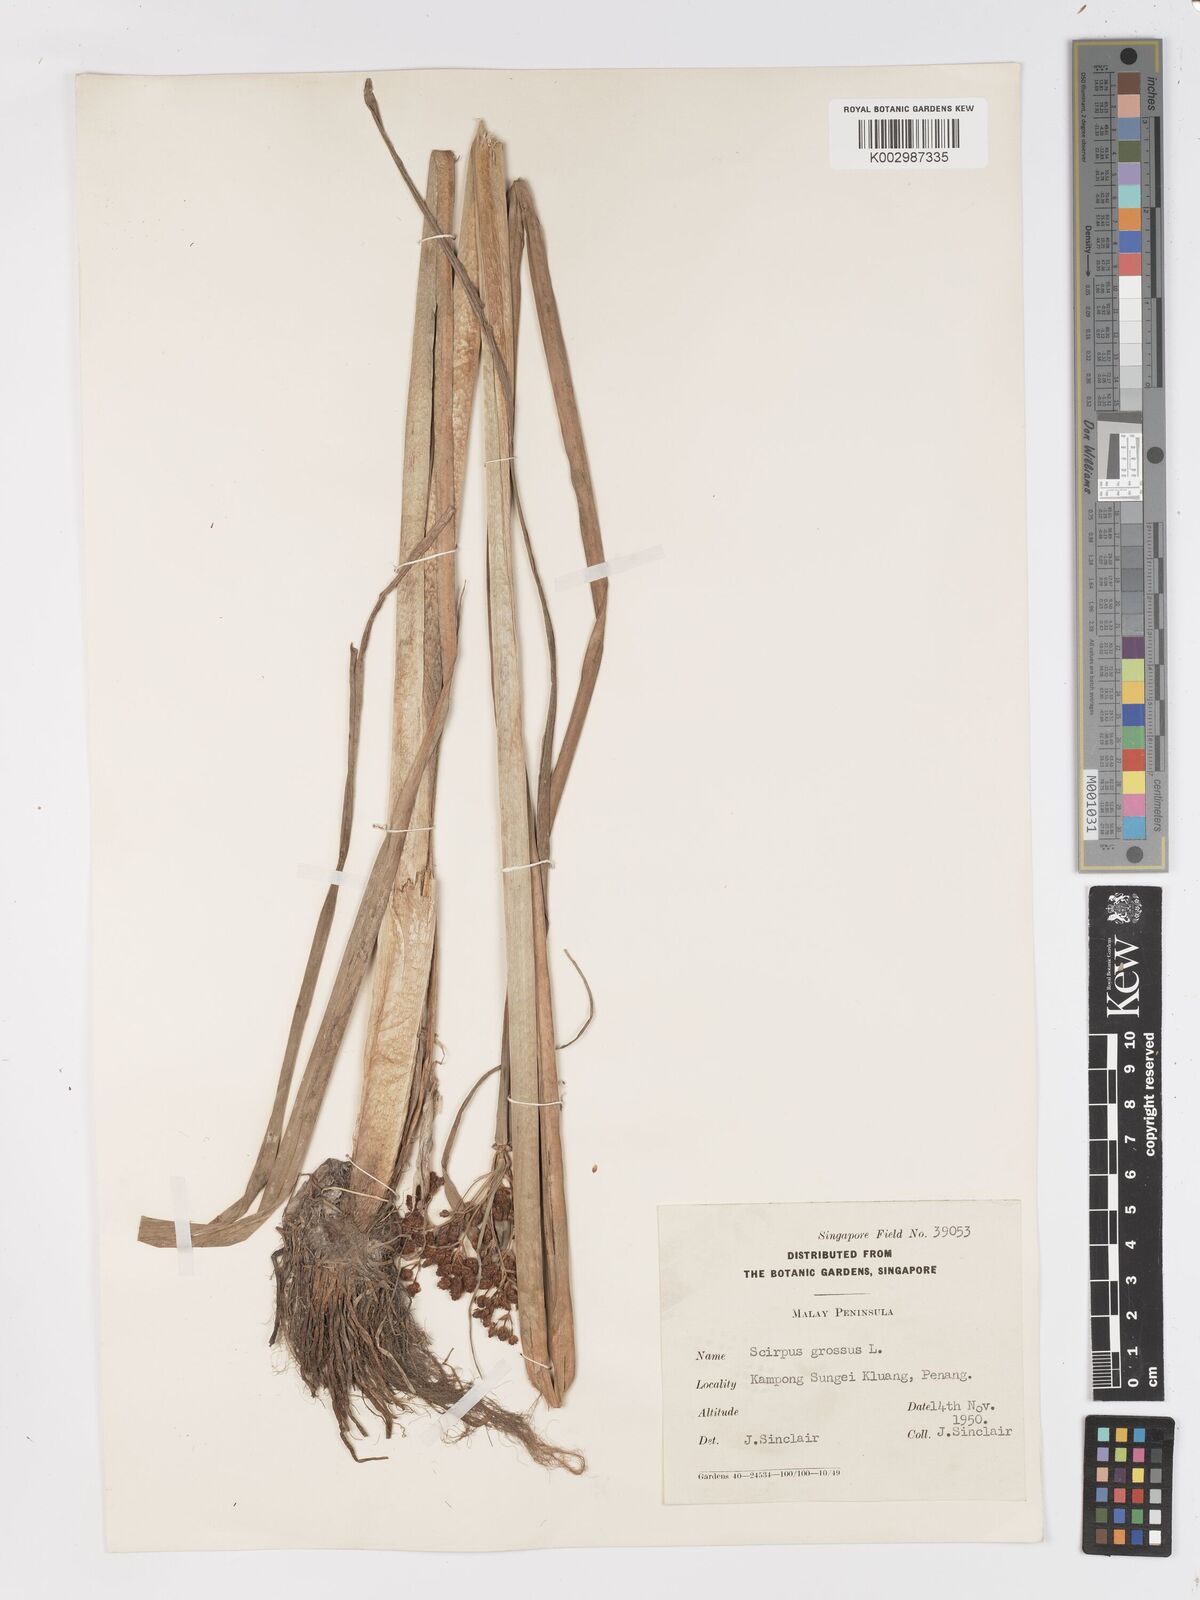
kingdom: Plantae
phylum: Tracheophyta
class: Liliopsida
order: Poales
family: Cyperaceae
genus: Actinoscirpus
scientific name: Actinoscirpus grossus
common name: Giant bur rush
